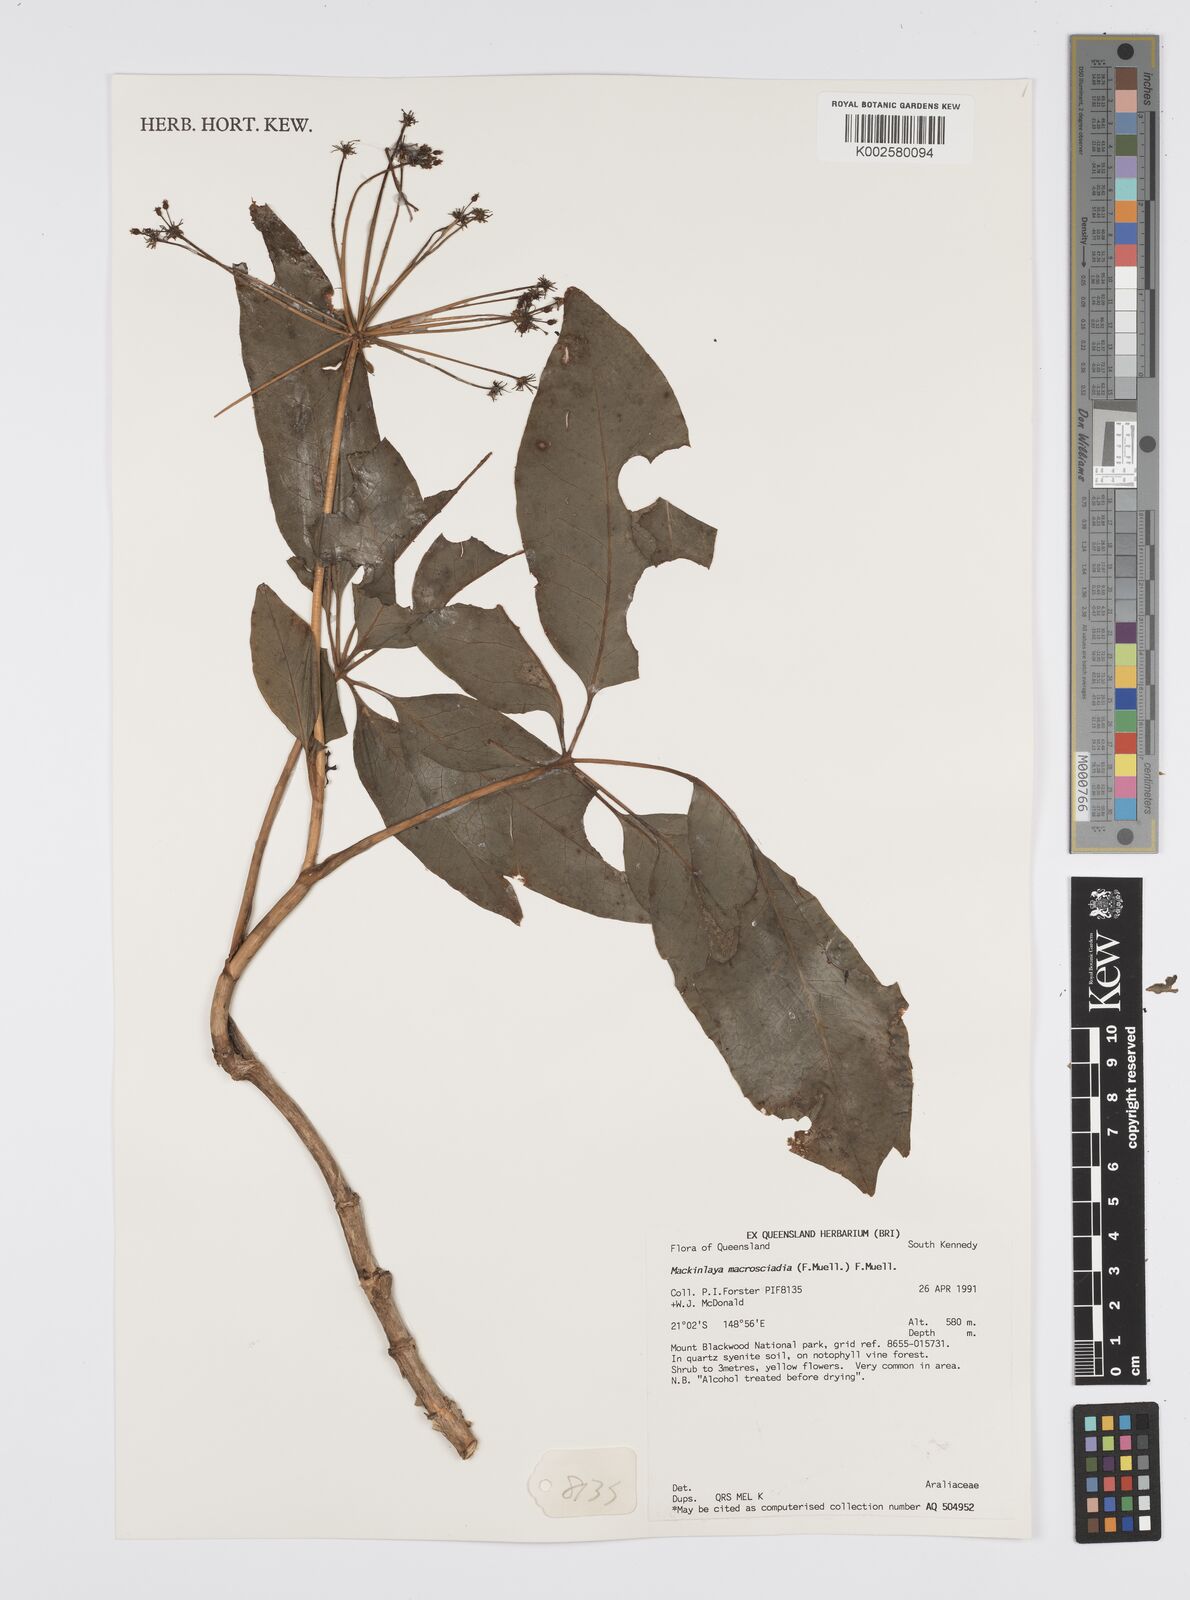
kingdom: Plantae
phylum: Tracheophyta
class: Magnoliopsida
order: Apiales
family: Apiaceae
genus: Mackinlaya
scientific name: Mackinlaya macrosciadea
